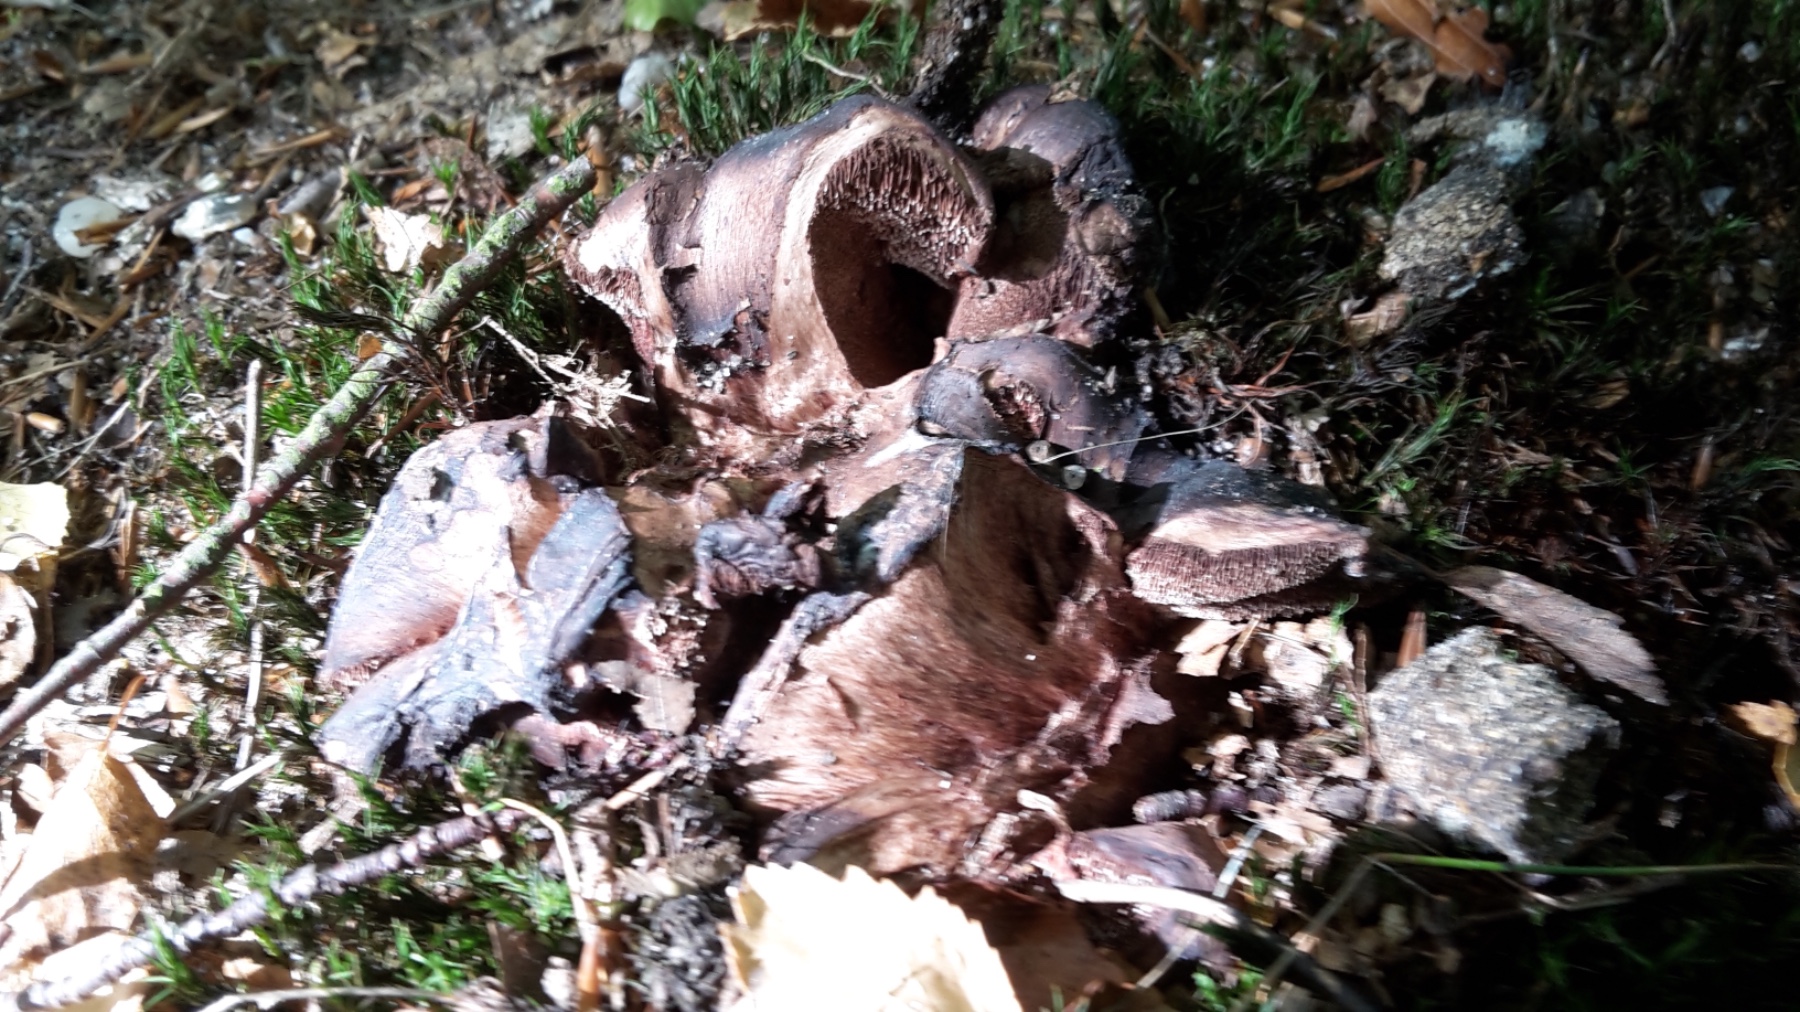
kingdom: Fungi
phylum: Basidiomycota
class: Agaricomycetes
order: Thelephorales
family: Bankeraceae
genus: Hydnellum
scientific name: Hydnellum nemorosum
